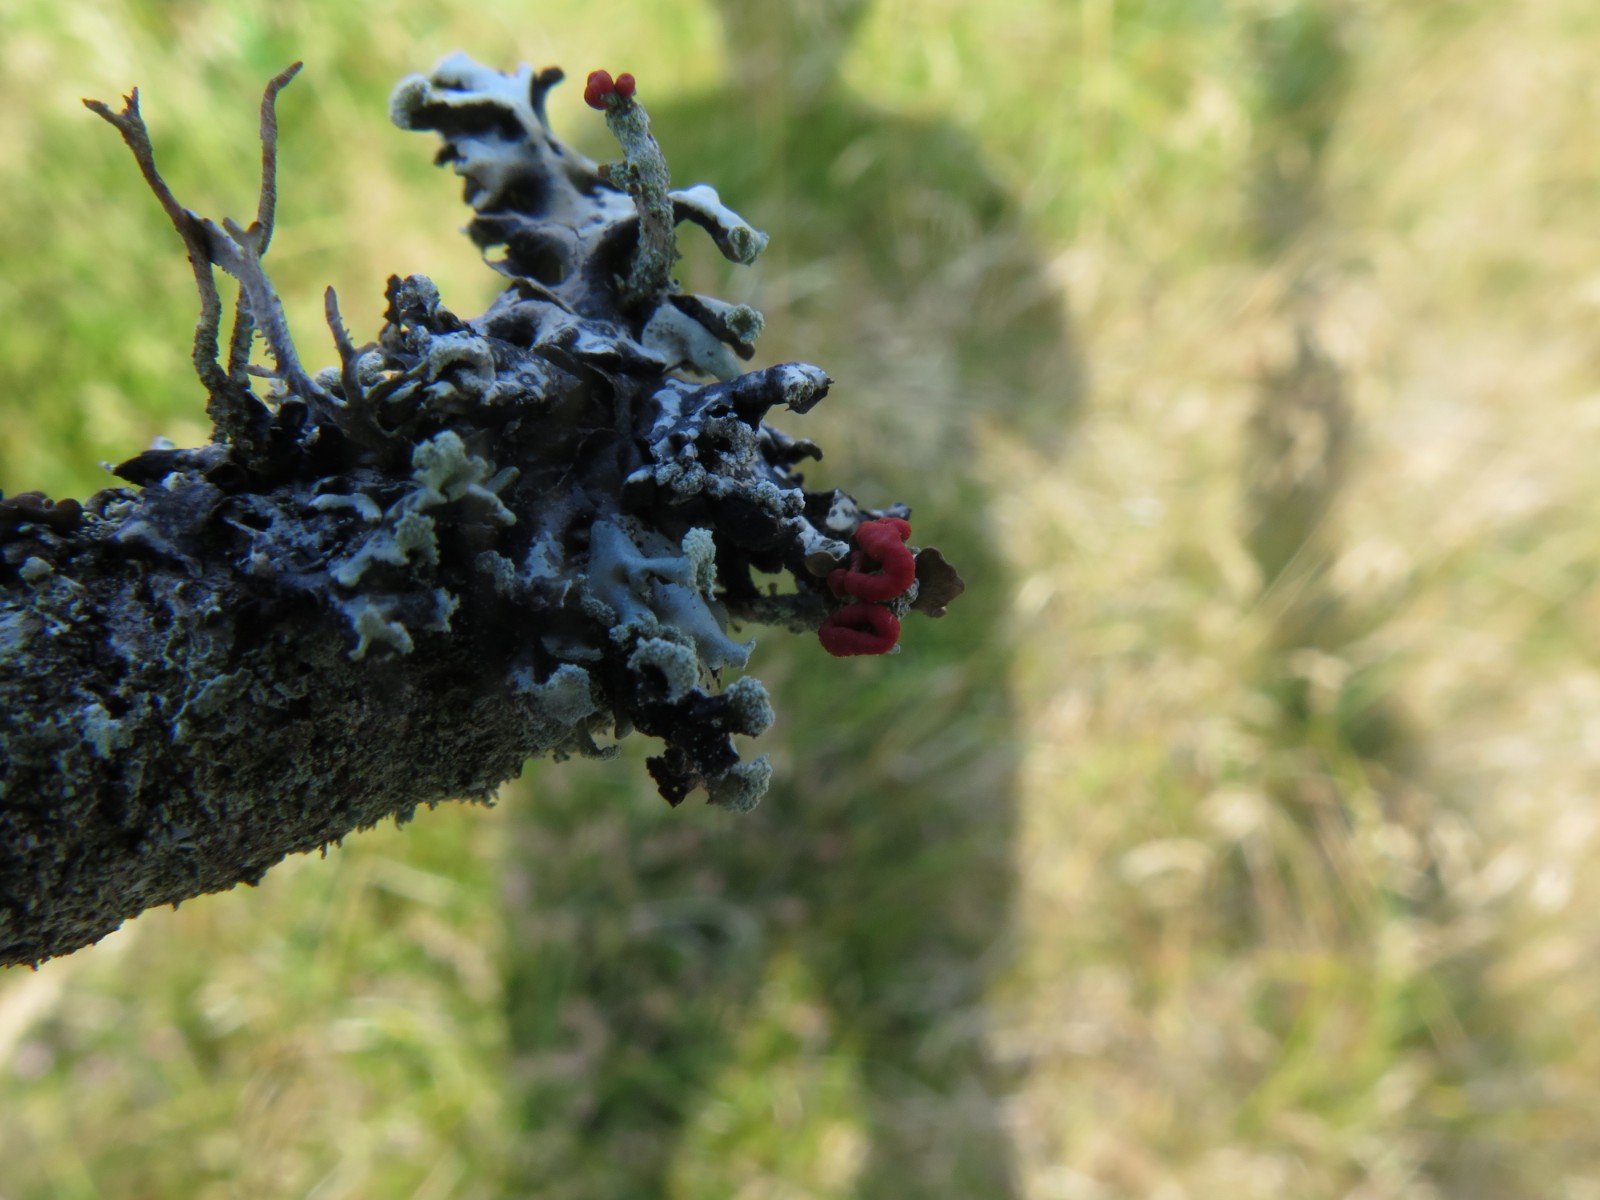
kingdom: Fungi
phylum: Ascomycota
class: Lecanoromycetes
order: Lecanorales
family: Cladoniaceae
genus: Cladonia
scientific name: Cladonia floerkeana
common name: lakrød bægerlav
